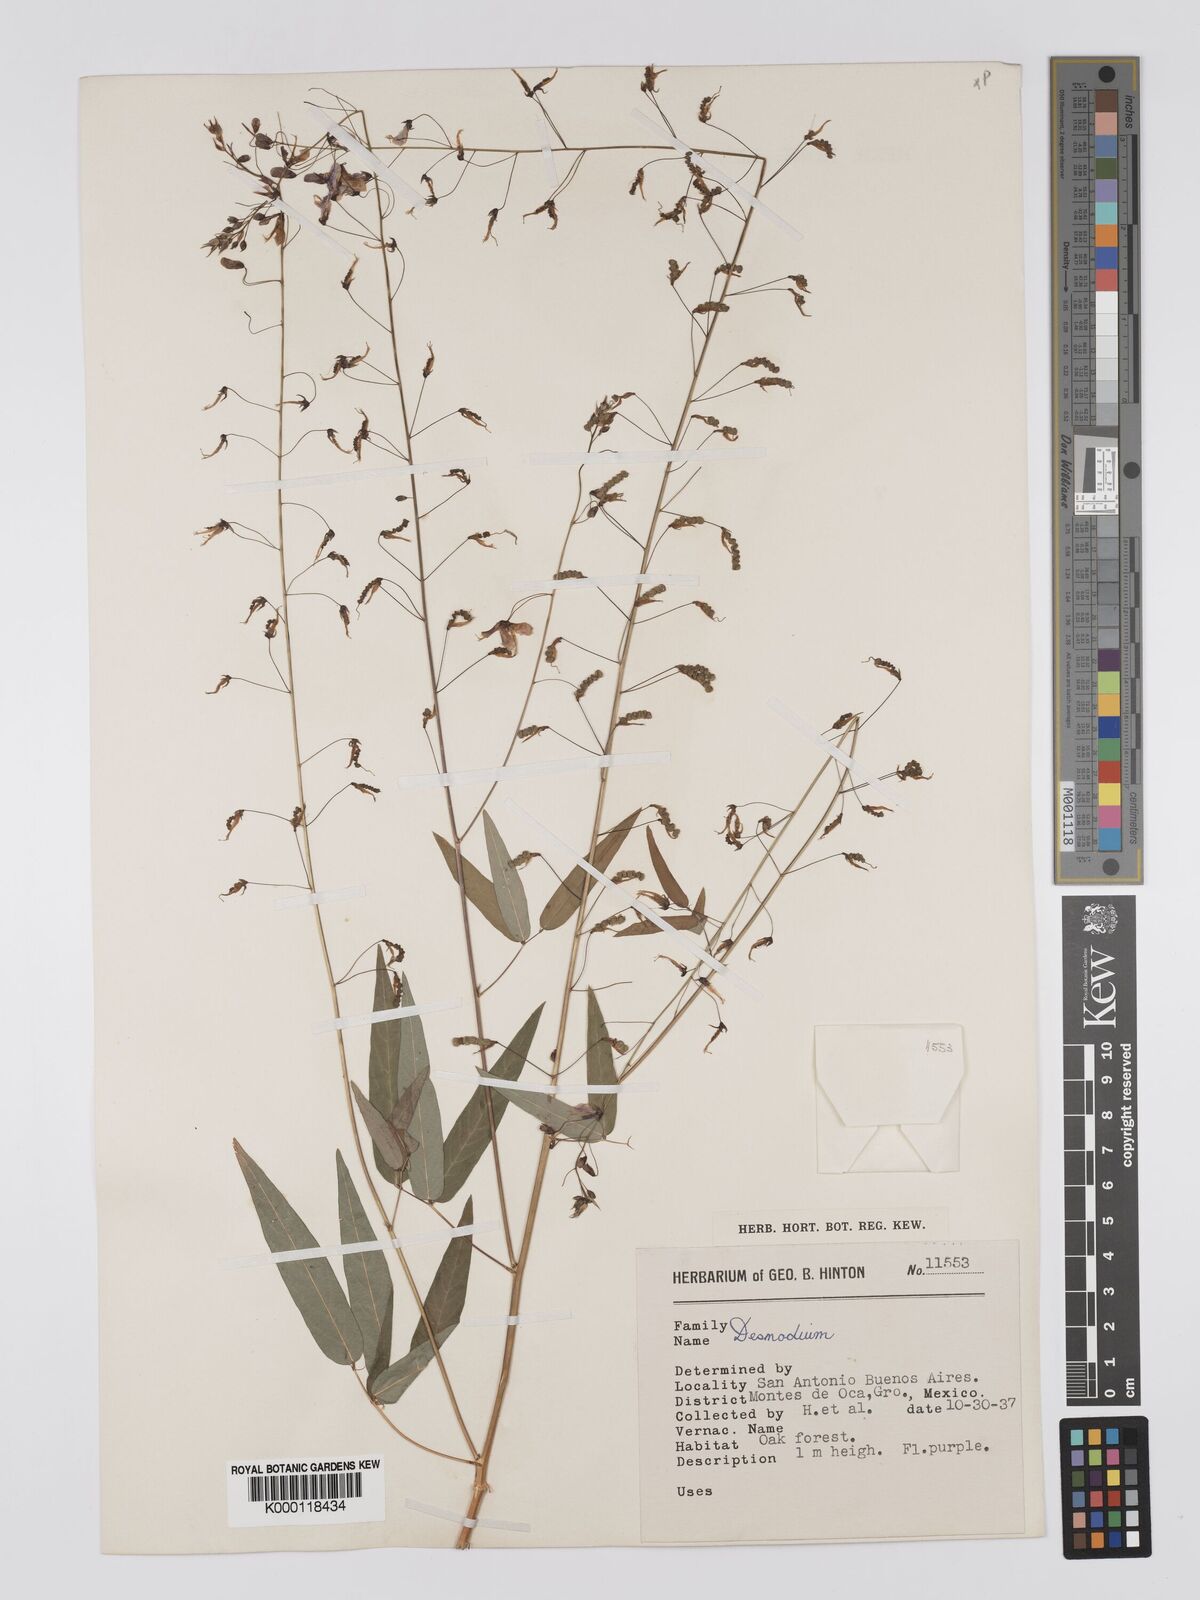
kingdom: Plantae
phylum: Tracheophyta
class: Magnoliopsida
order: Fabales
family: Fabaceae
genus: Desmodium
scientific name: Desmodium
